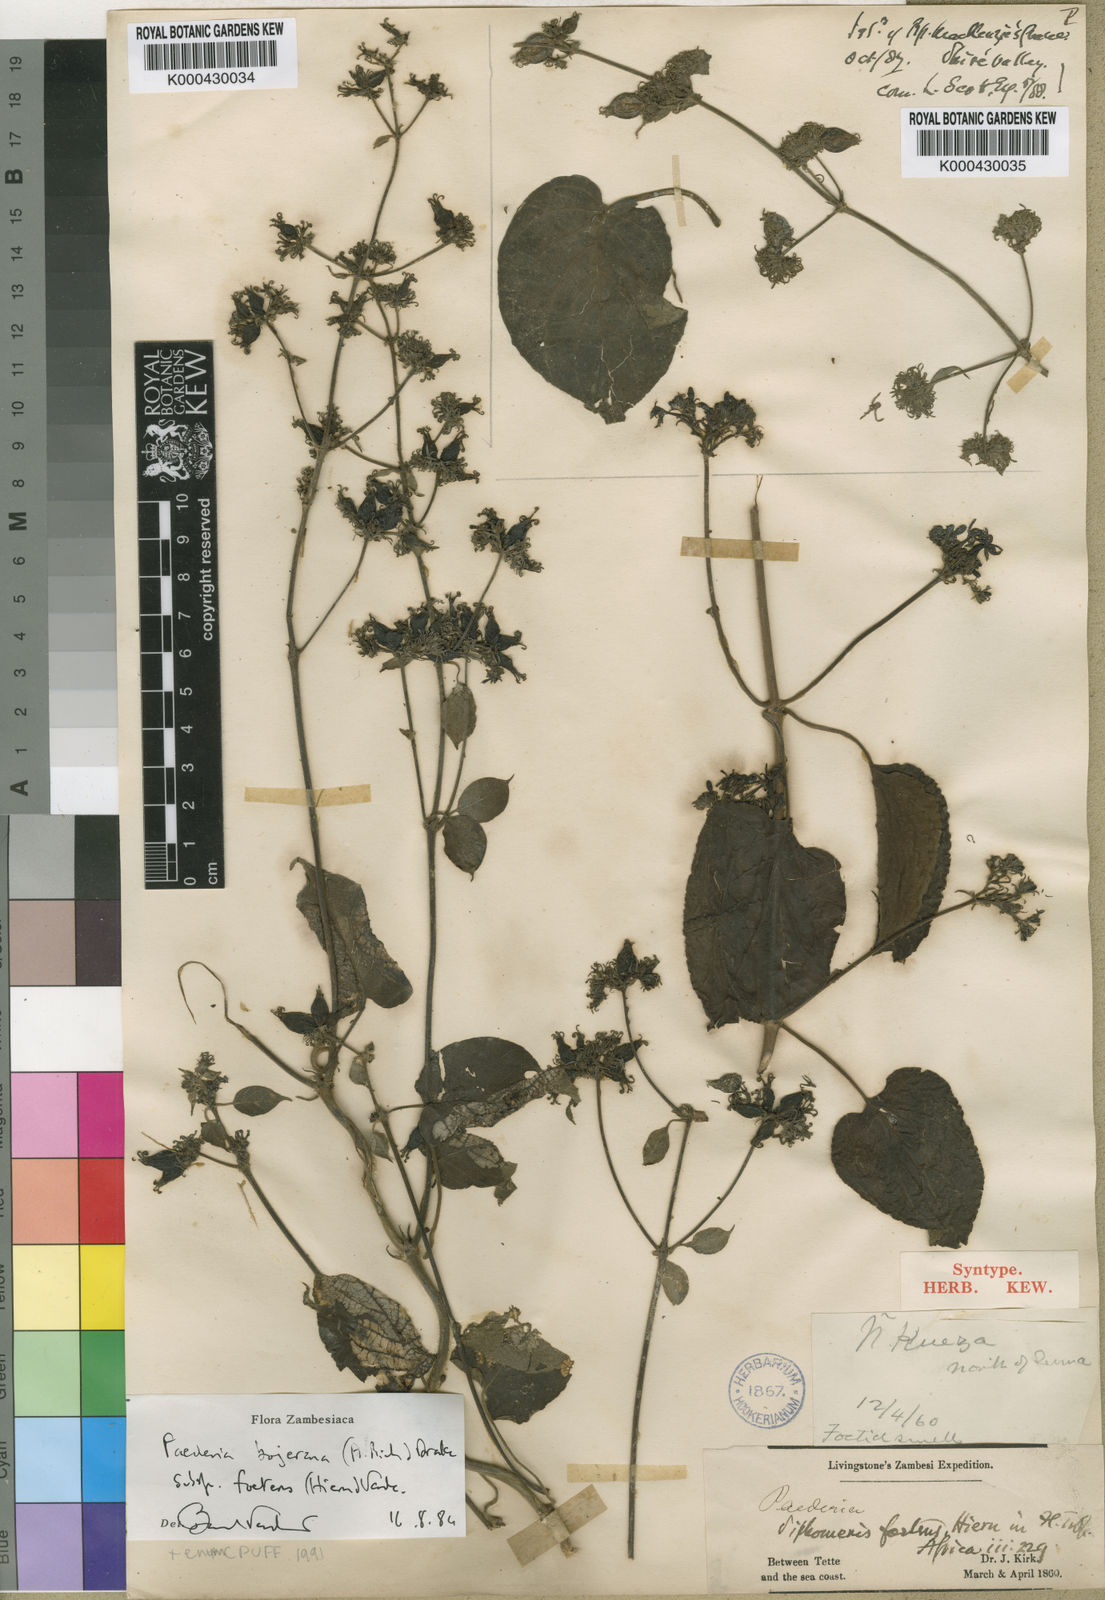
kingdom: Plantae
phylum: Tracheophyta
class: Magnoliopsida
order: Gentianales
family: Rubiaceae
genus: Paederia
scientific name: Paederia bojeriana
